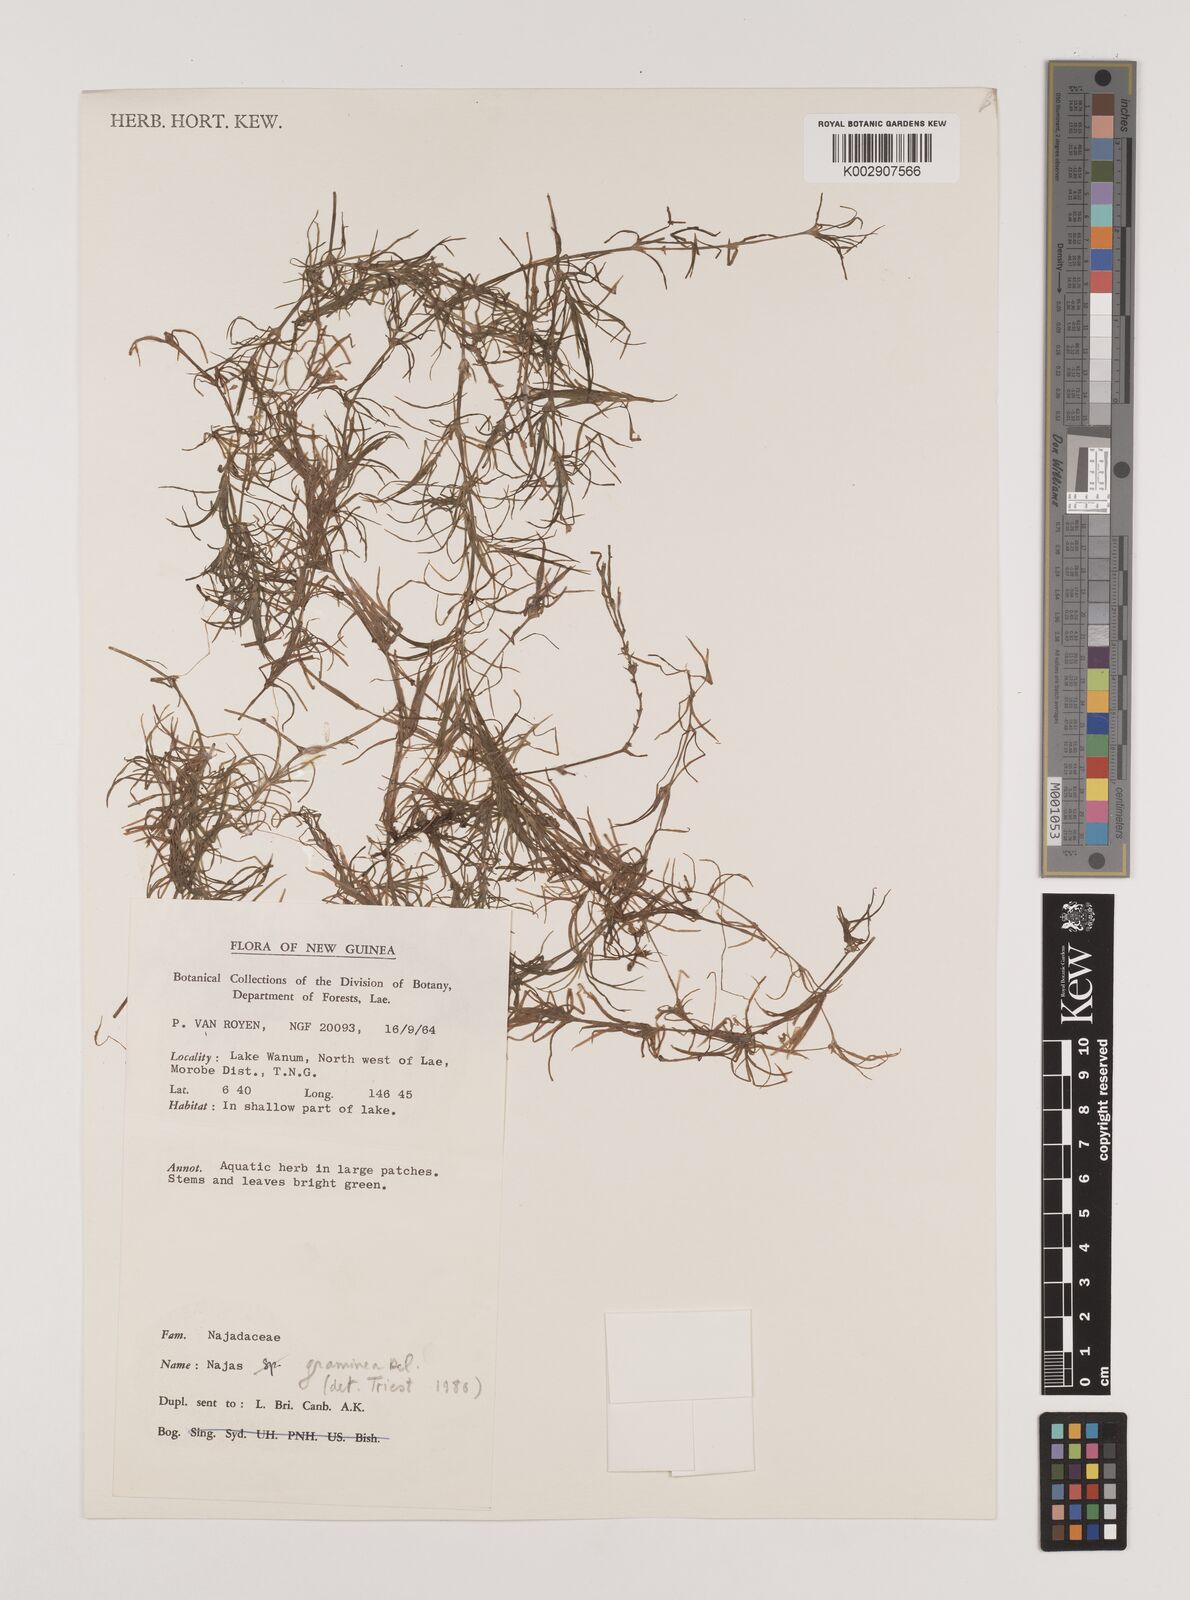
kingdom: Plantae
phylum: Tracheophyta
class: Liliopsida
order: Alismatales
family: Hydrocharitaceae
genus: Najas
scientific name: Najas graminea
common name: Ricefield waternymph
